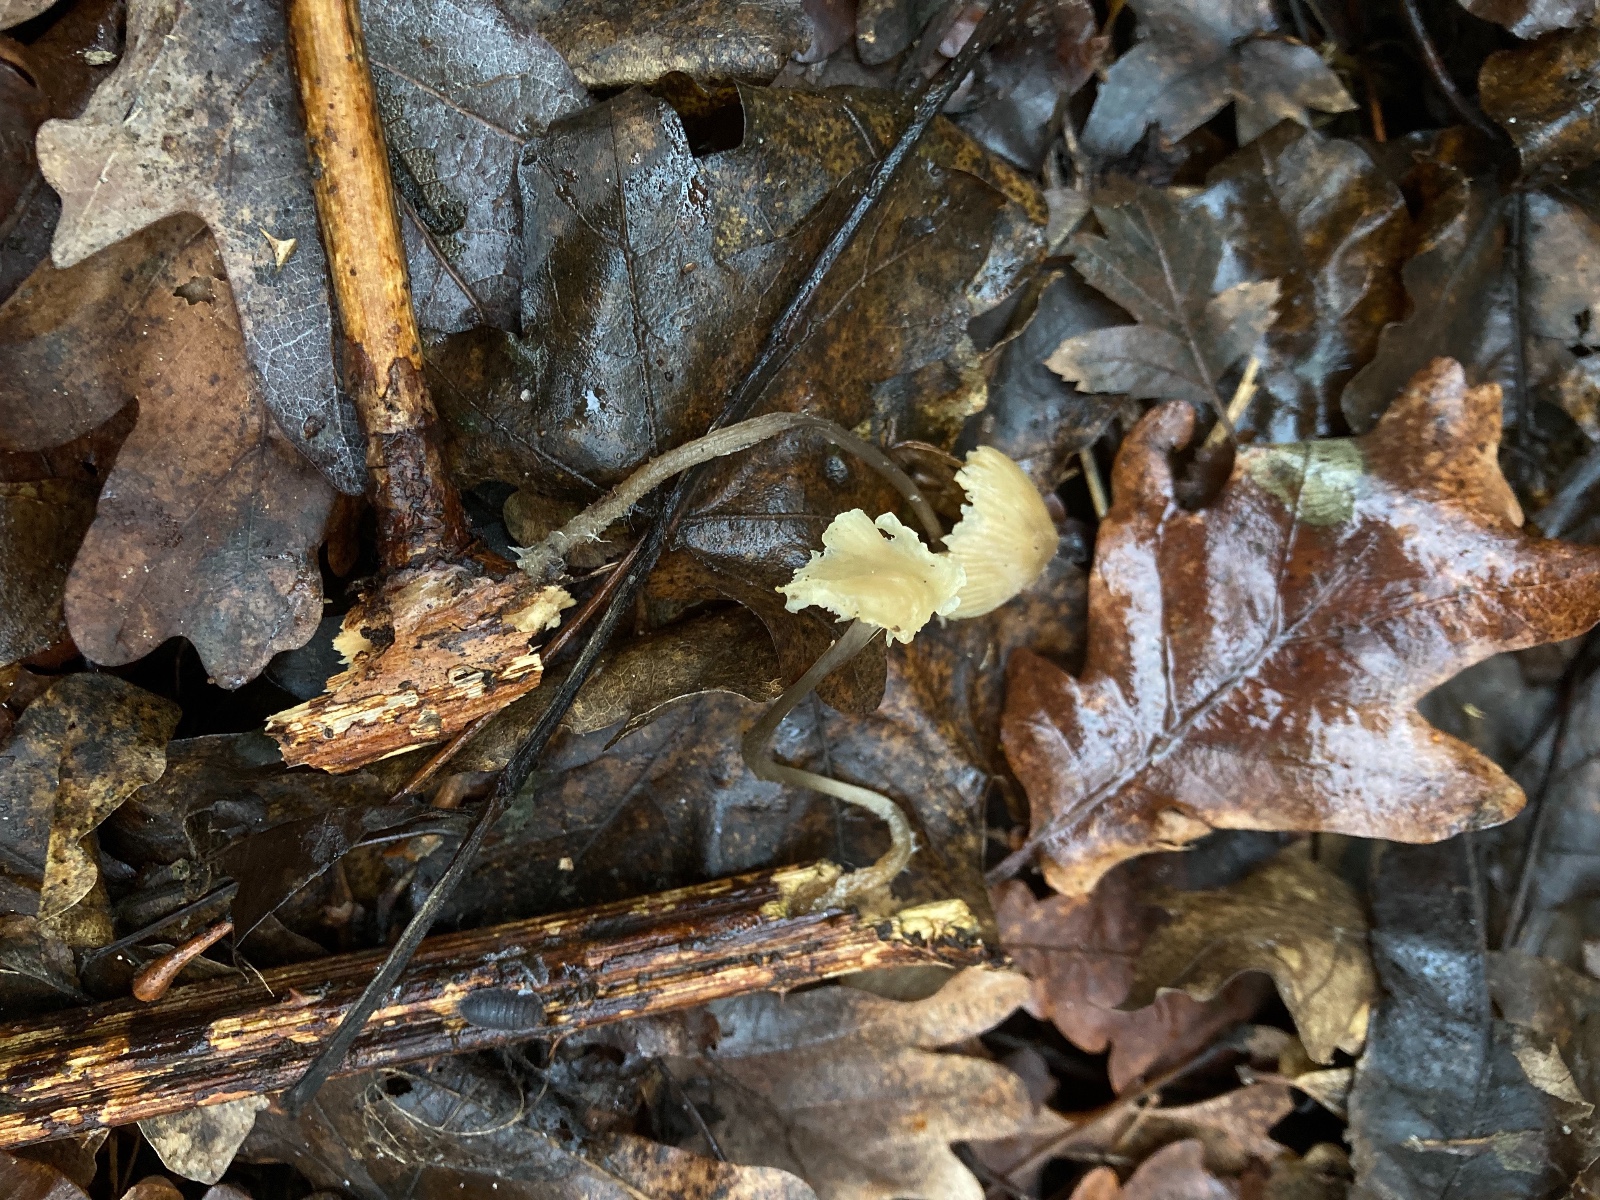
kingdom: Fungi
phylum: Basidiomycota
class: Agaricomycetes
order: Agaricales
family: Mycenaceae
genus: Mycena
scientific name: Mycena arcangeliana
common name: oliven-huesvamp
